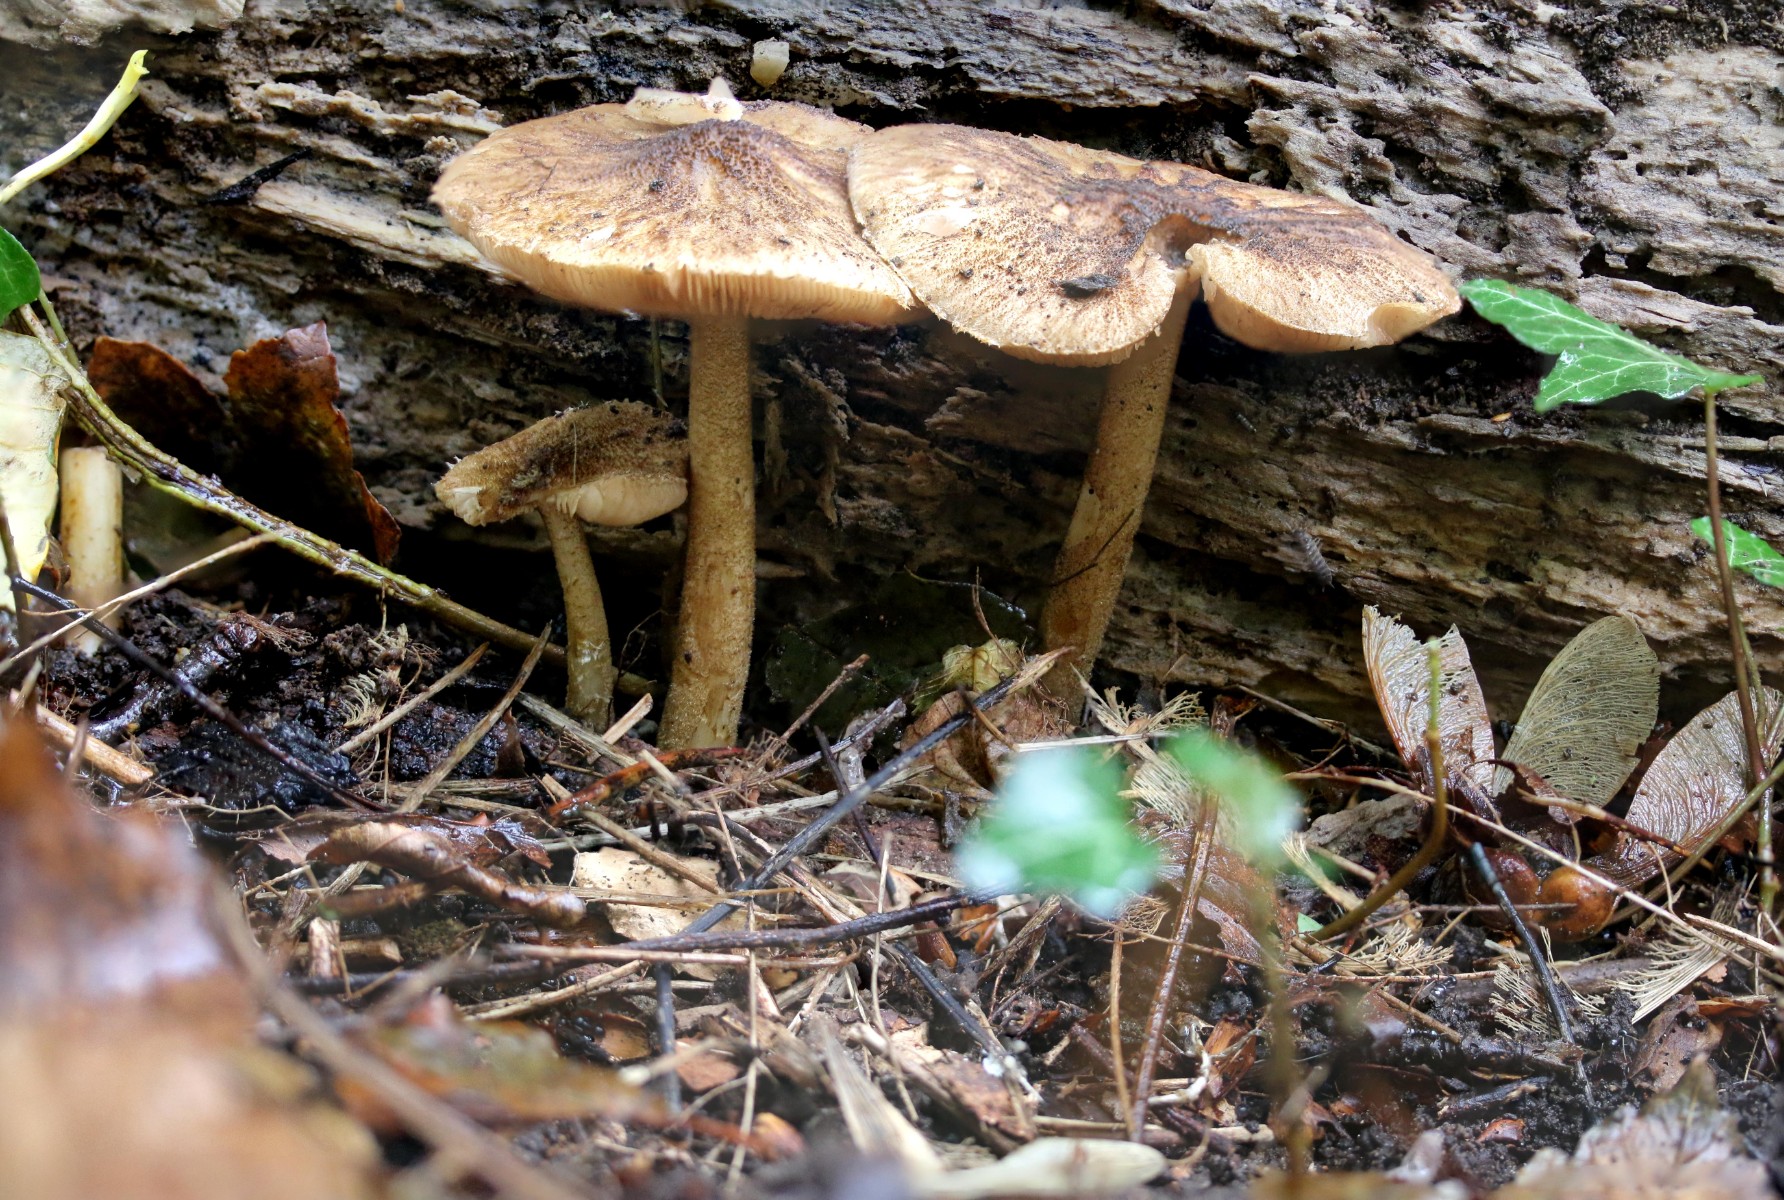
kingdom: Fungi
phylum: Basidiomycota
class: Agaricomycetes
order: Agaricales
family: Pluteaceae
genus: Pluteus
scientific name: Pluteus umbrosus
